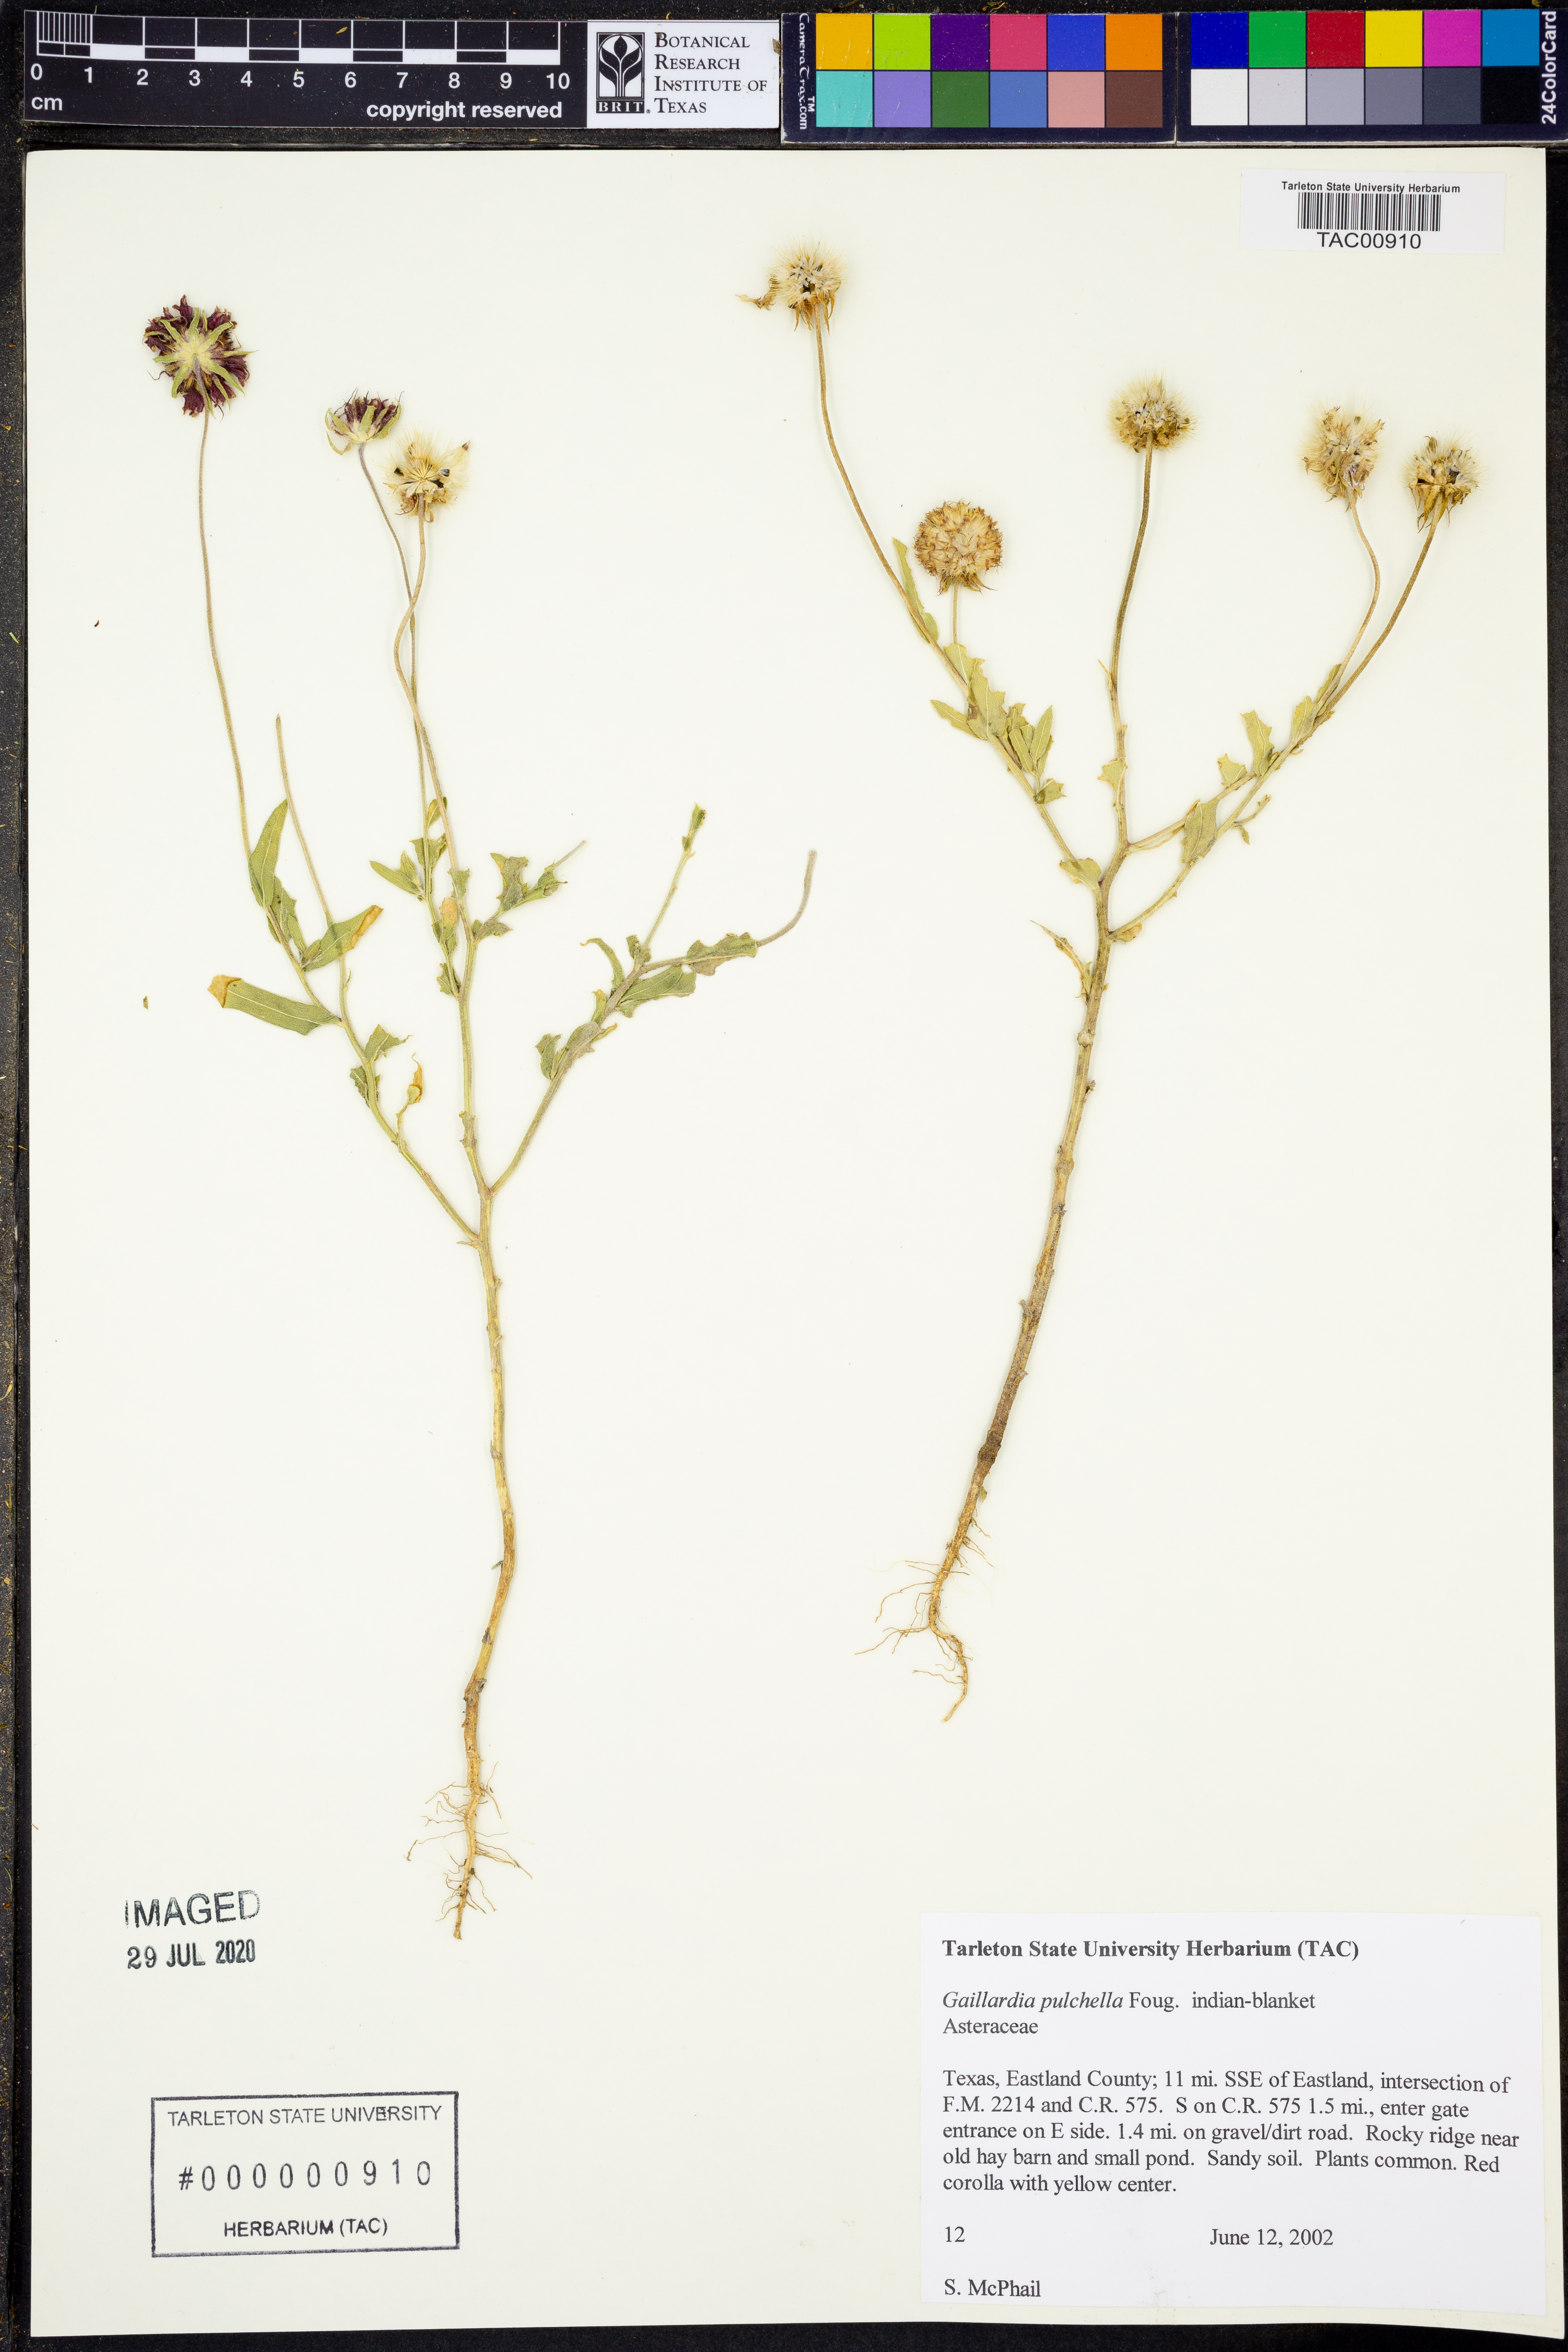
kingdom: Plantae
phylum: Tracheophyta
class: Magnoliopsida
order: Asterales
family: Asteraceae
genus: Gaillardia
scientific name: Gaillardia pulchella
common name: Firewheel
